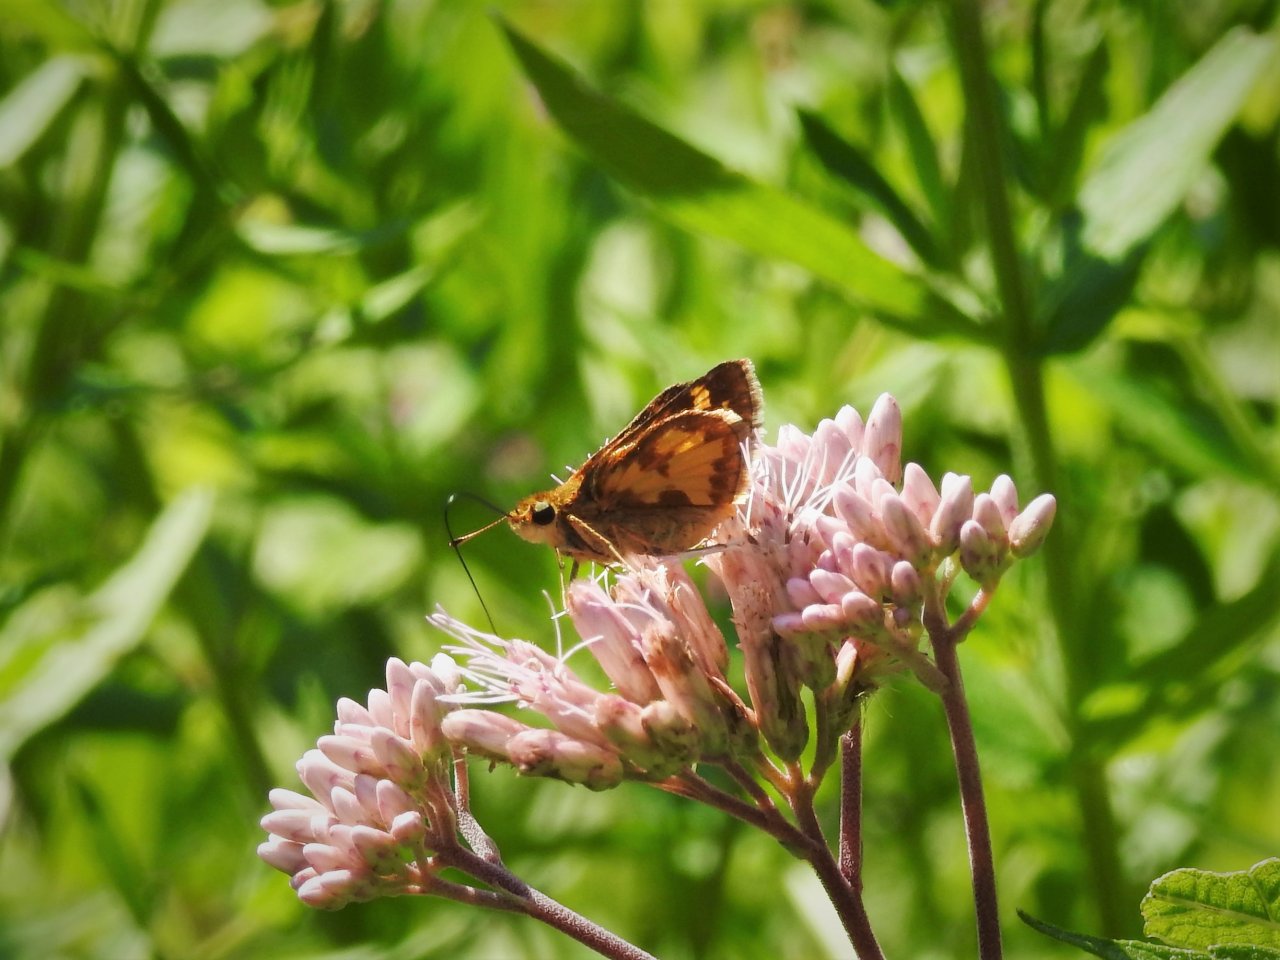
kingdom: Animalia
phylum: Arthropoda
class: Insecta
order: Lepidoptera
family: Hesperiidae
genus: Polites
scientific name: Polites coras
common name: Peck's Skipper
